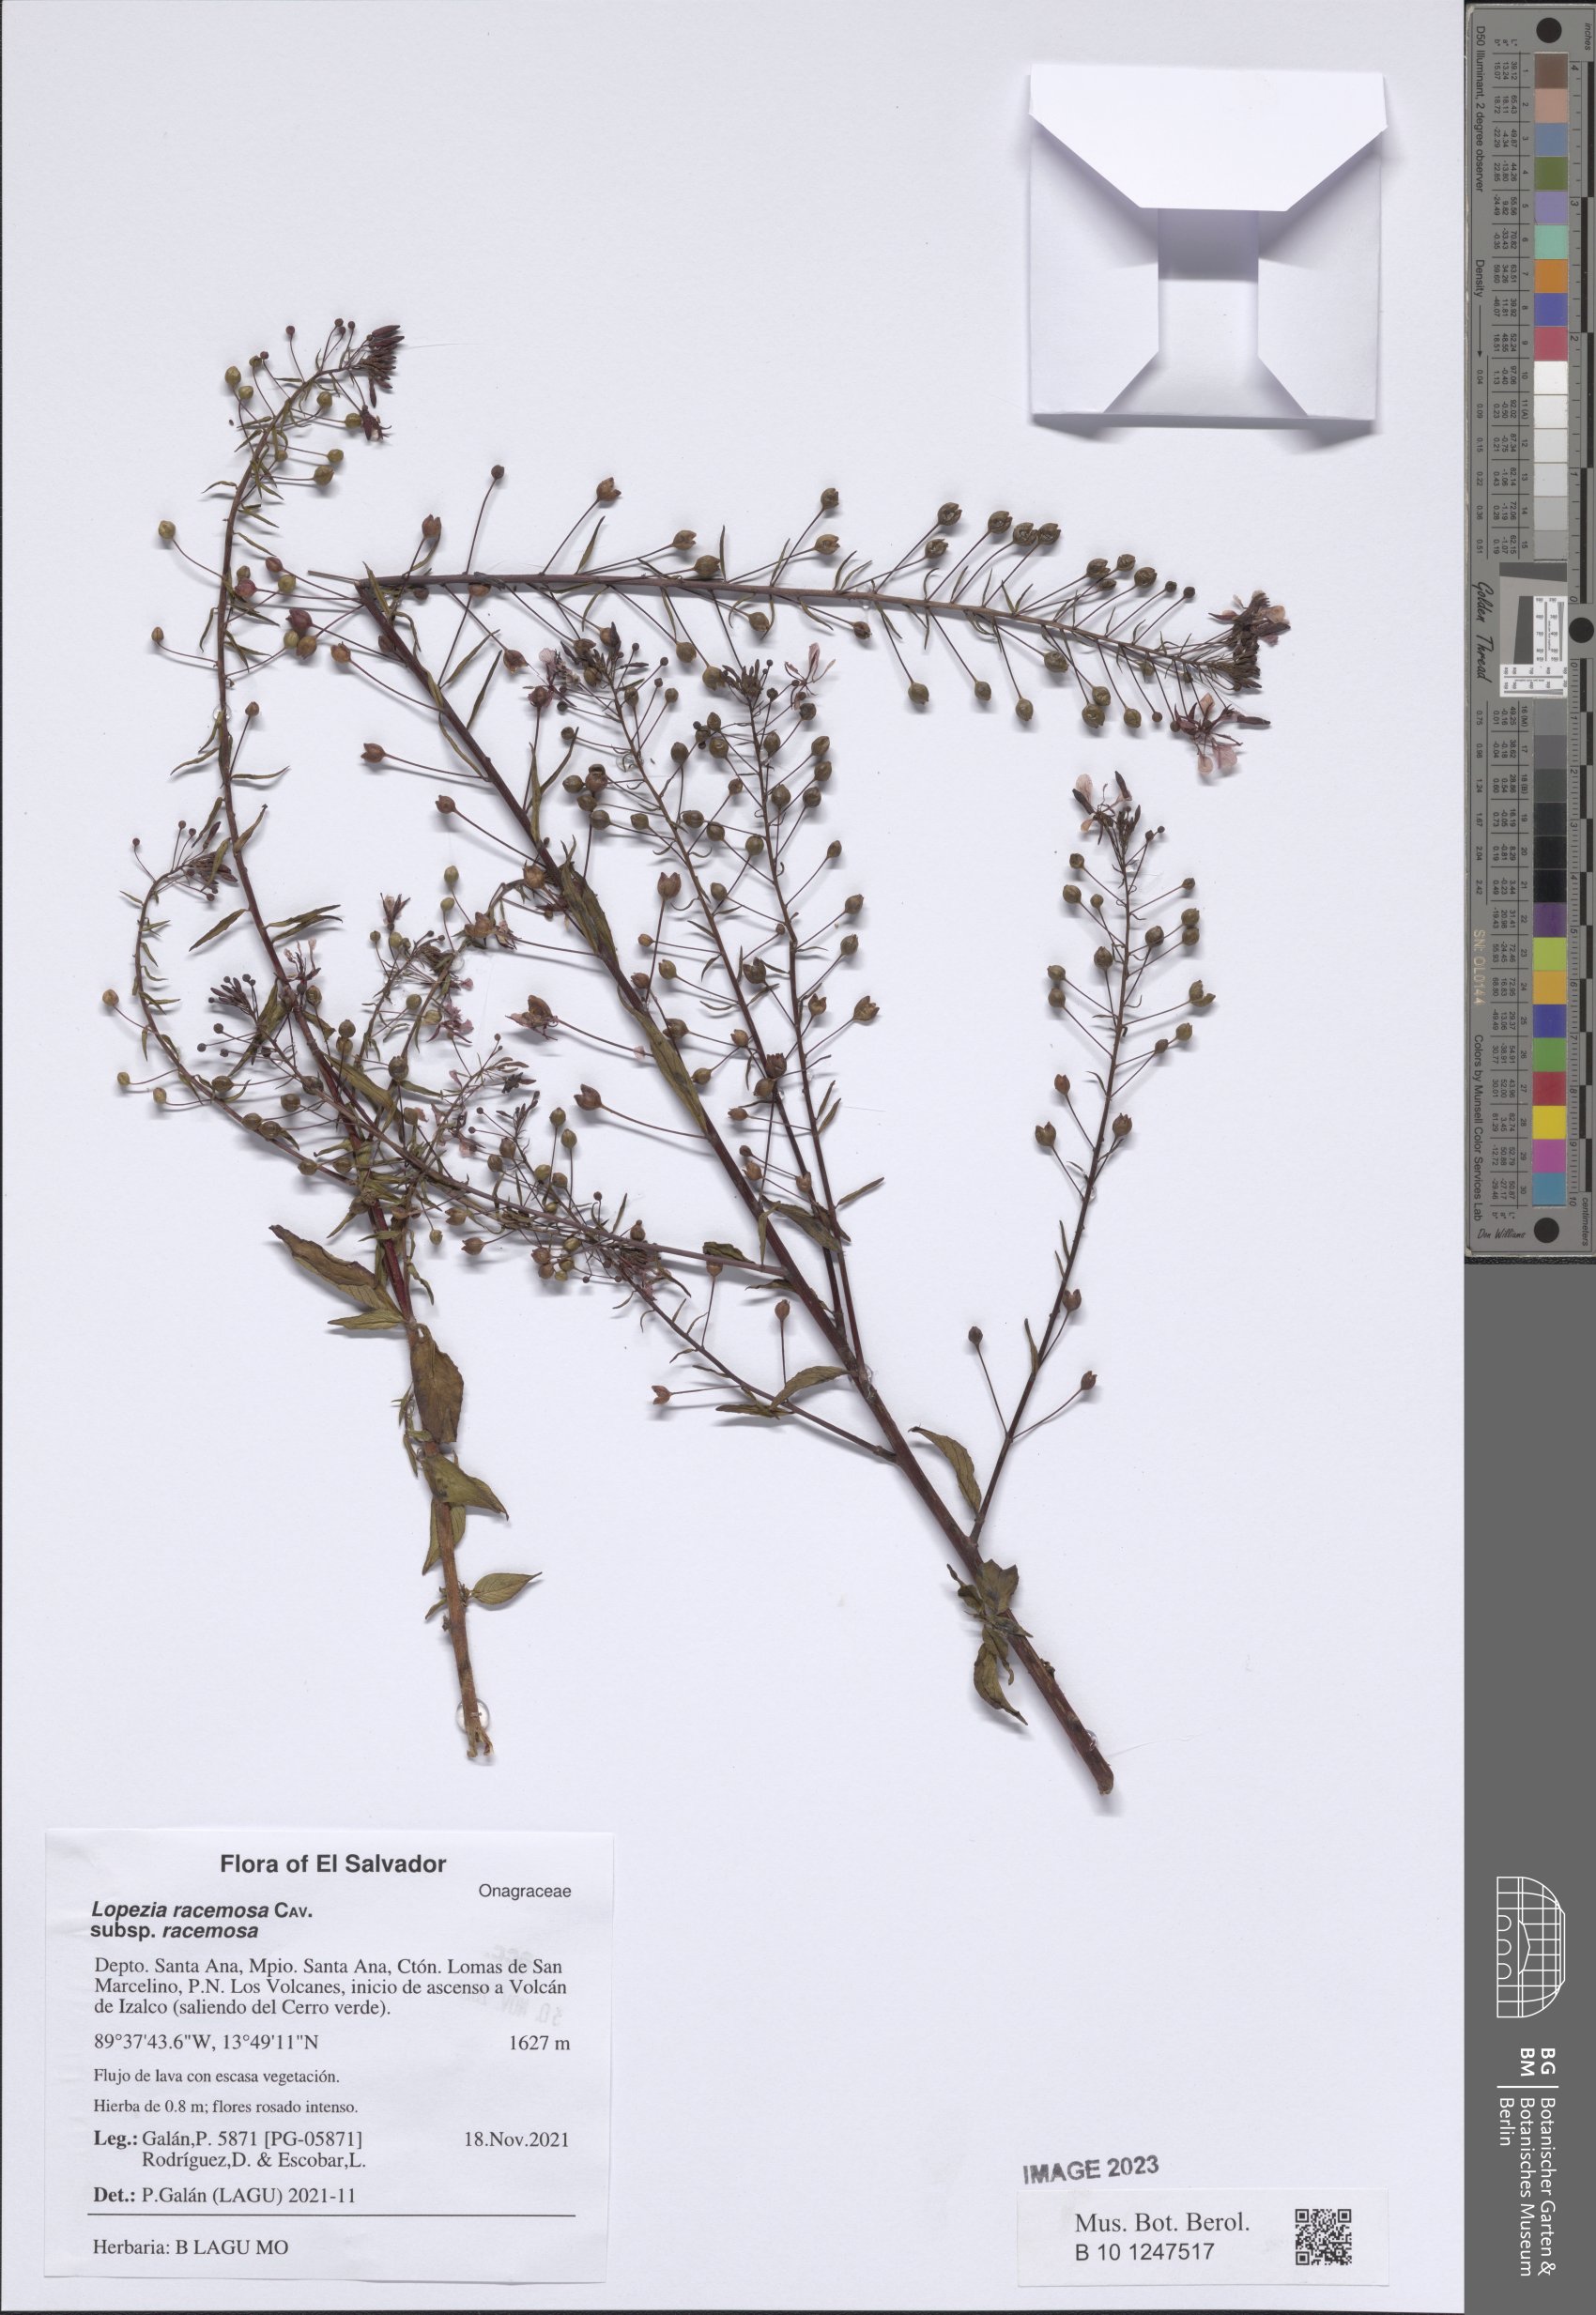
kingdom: Plantae
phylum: Tracheophyta
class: Magnoliopsida
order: Myrtales
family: Onagraceae
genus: Lopezia
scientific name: Lopezia racemosa
